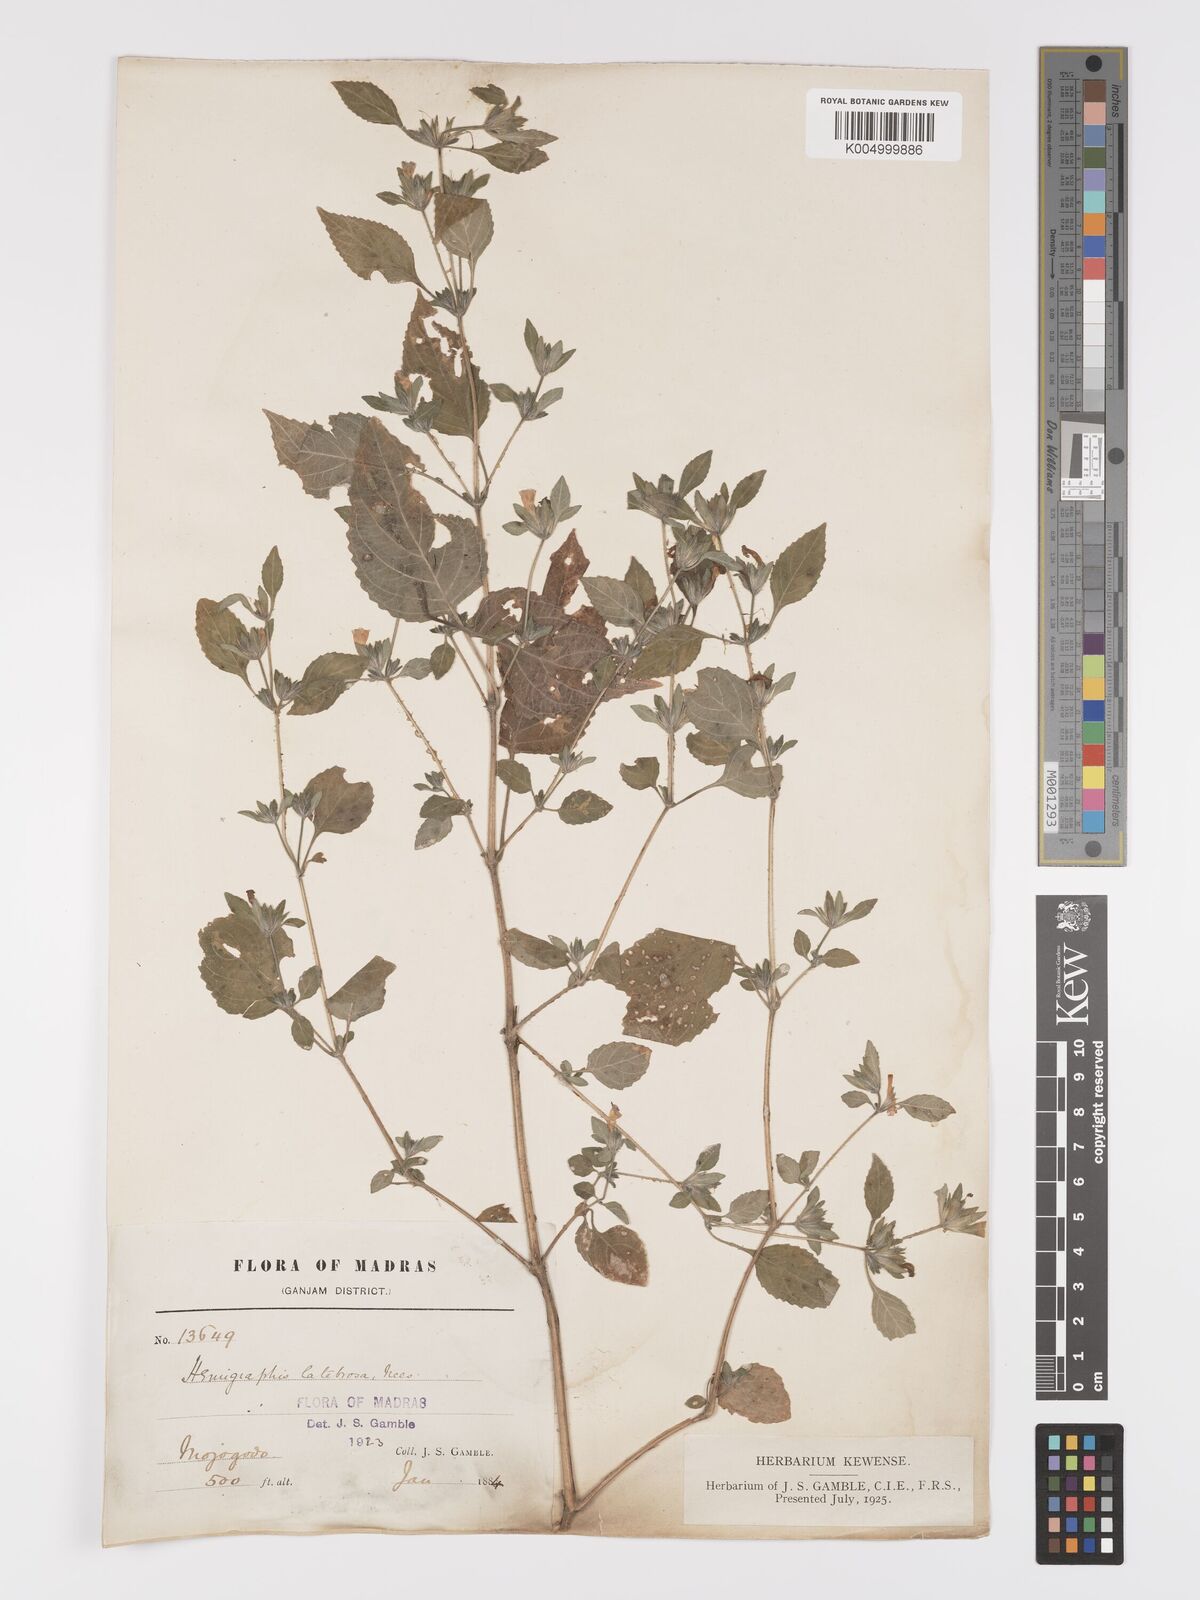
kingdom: Plantae
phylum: Tracheophyta
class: Magnoliopsida
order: Lamiales
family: Acanthaceae
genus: Strobilanthes
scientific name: Strobilanthes
